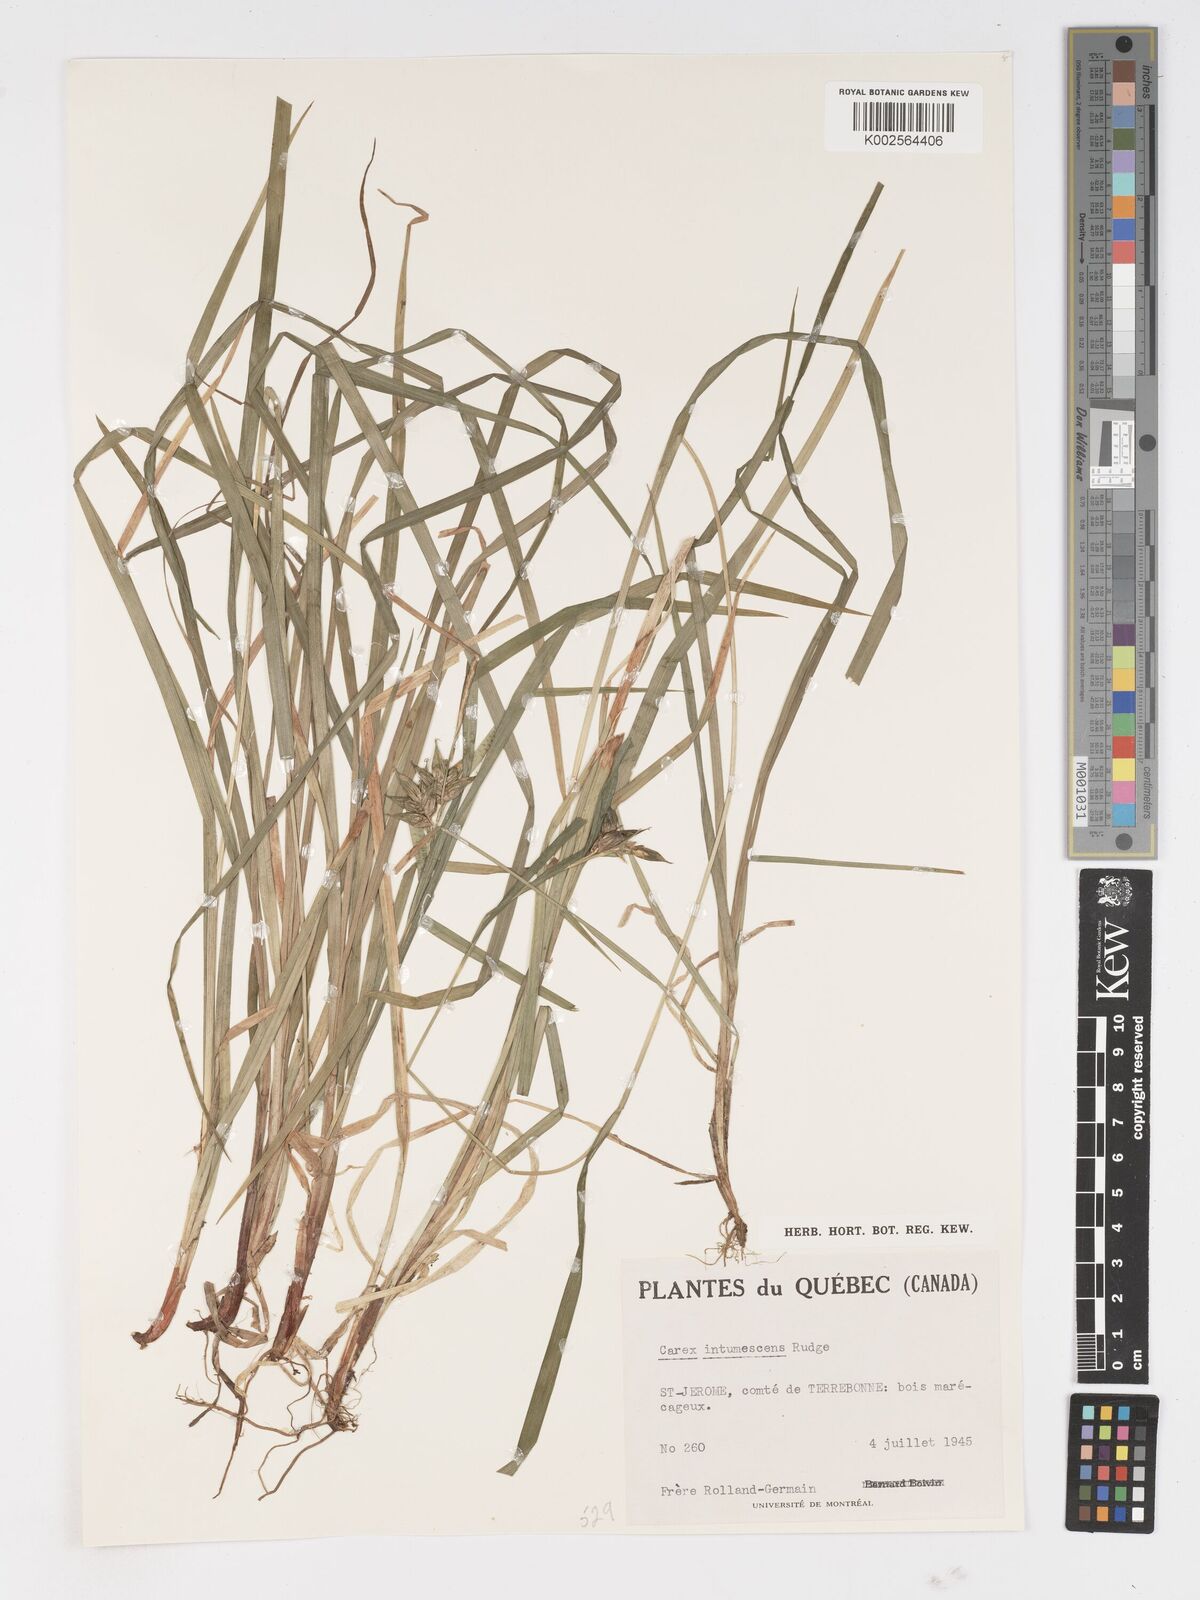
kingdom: Plantae
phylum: Tracheophyta
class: Liliopsida
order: Poales
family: Cyperaceae
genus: Carex
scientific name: Carex intumescens
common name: Greater bladder sedge
